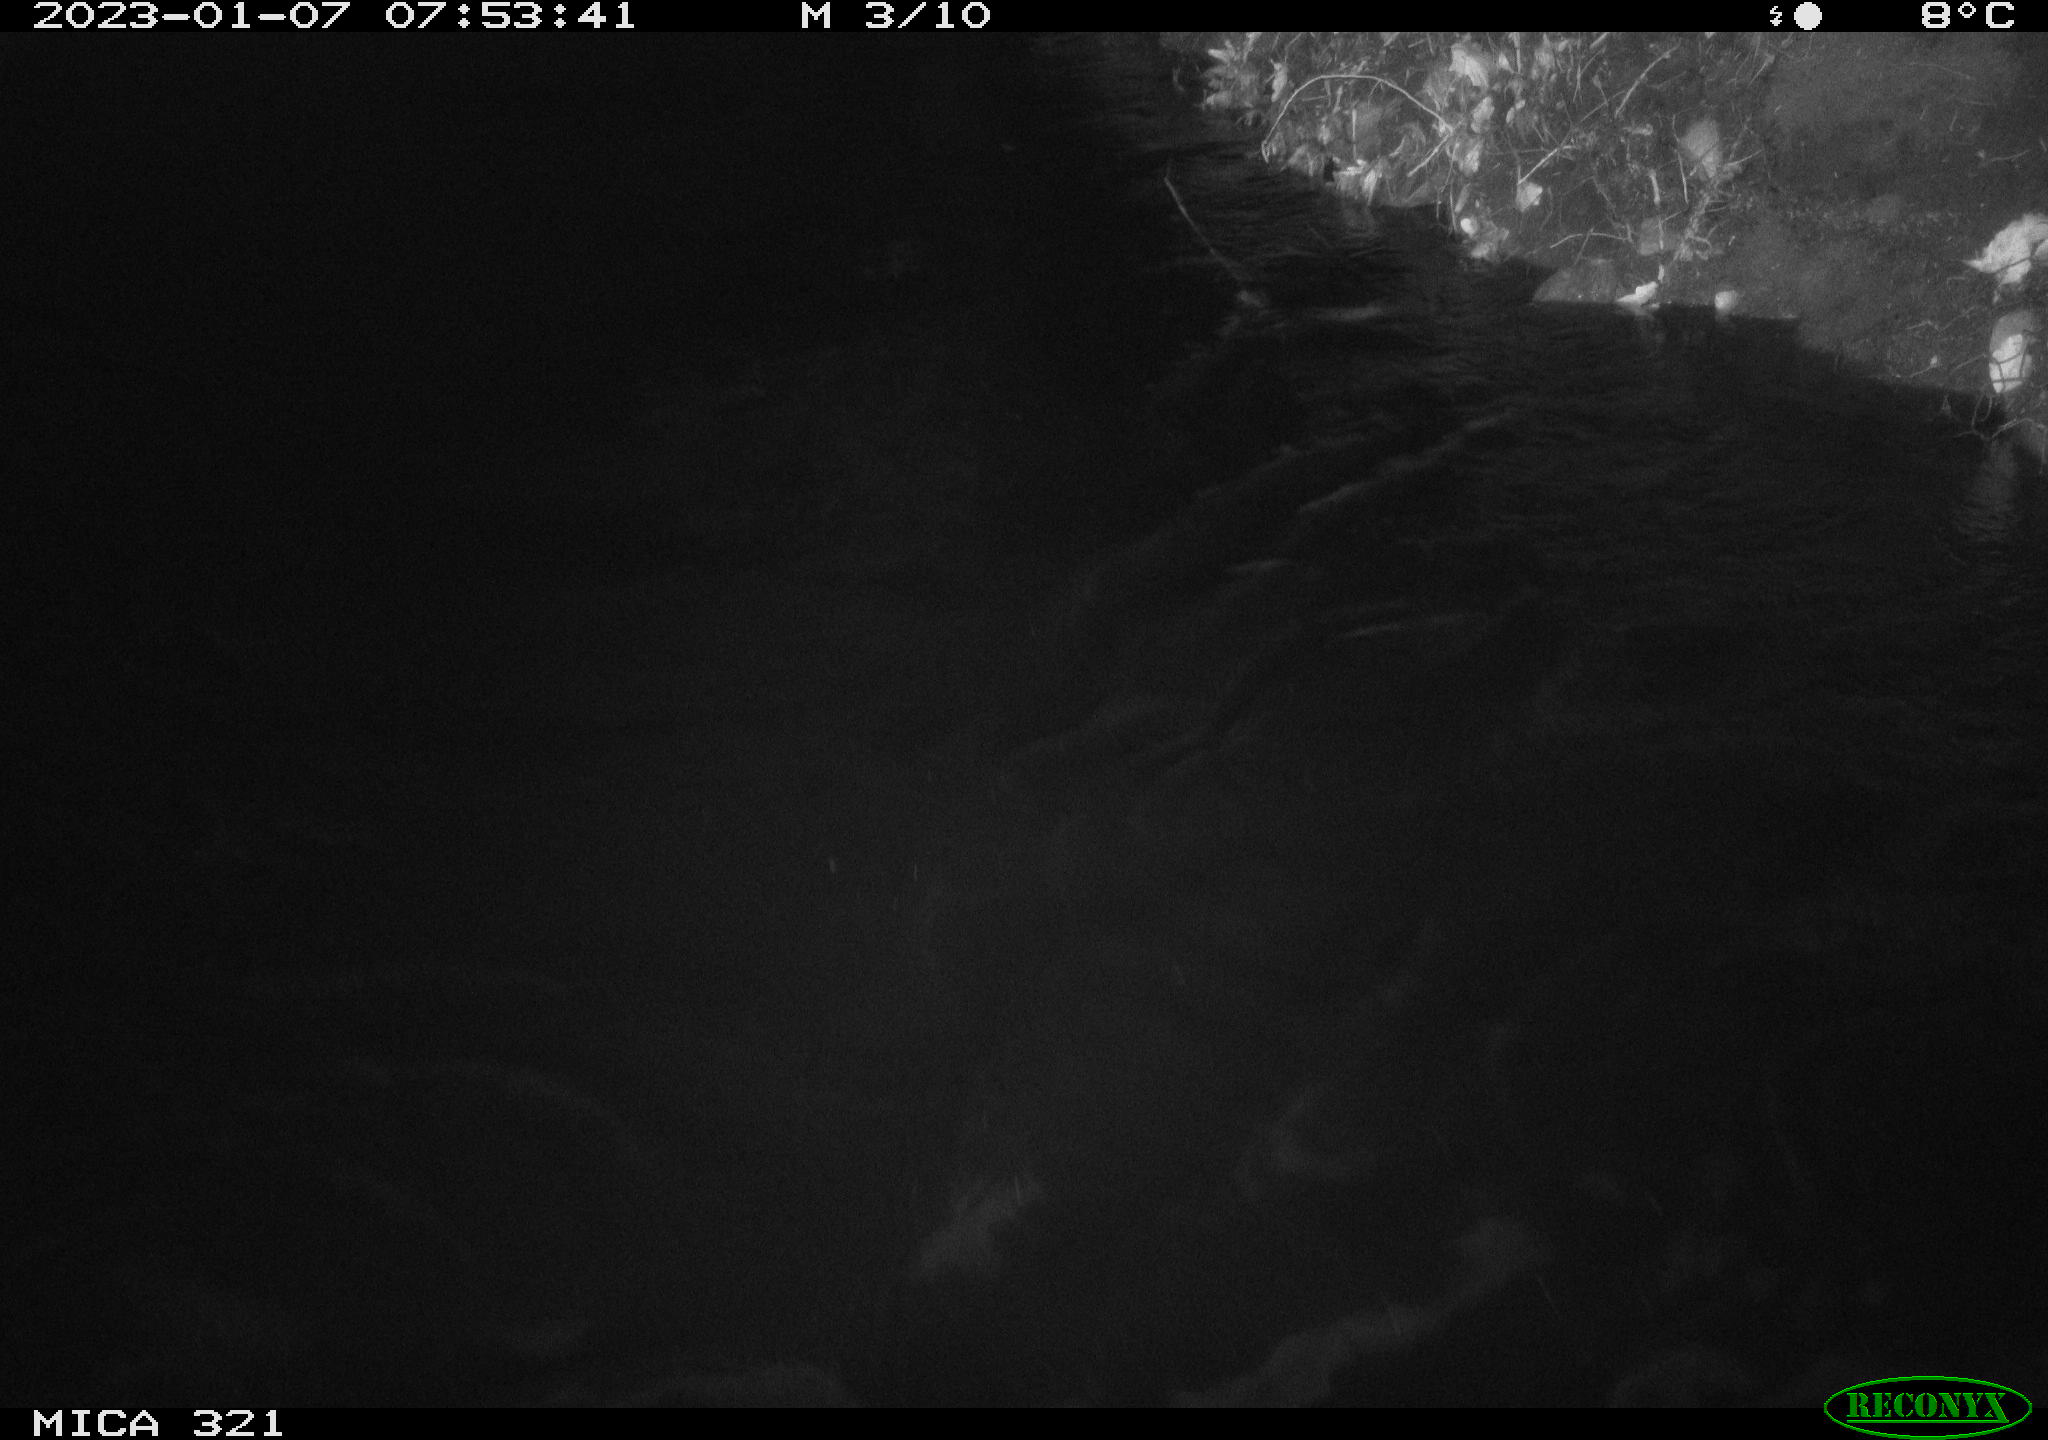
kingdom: Animalia
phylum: Chordata
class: Aves
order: Anseriformes
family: Anatidae
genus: Anas
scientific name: Anas
